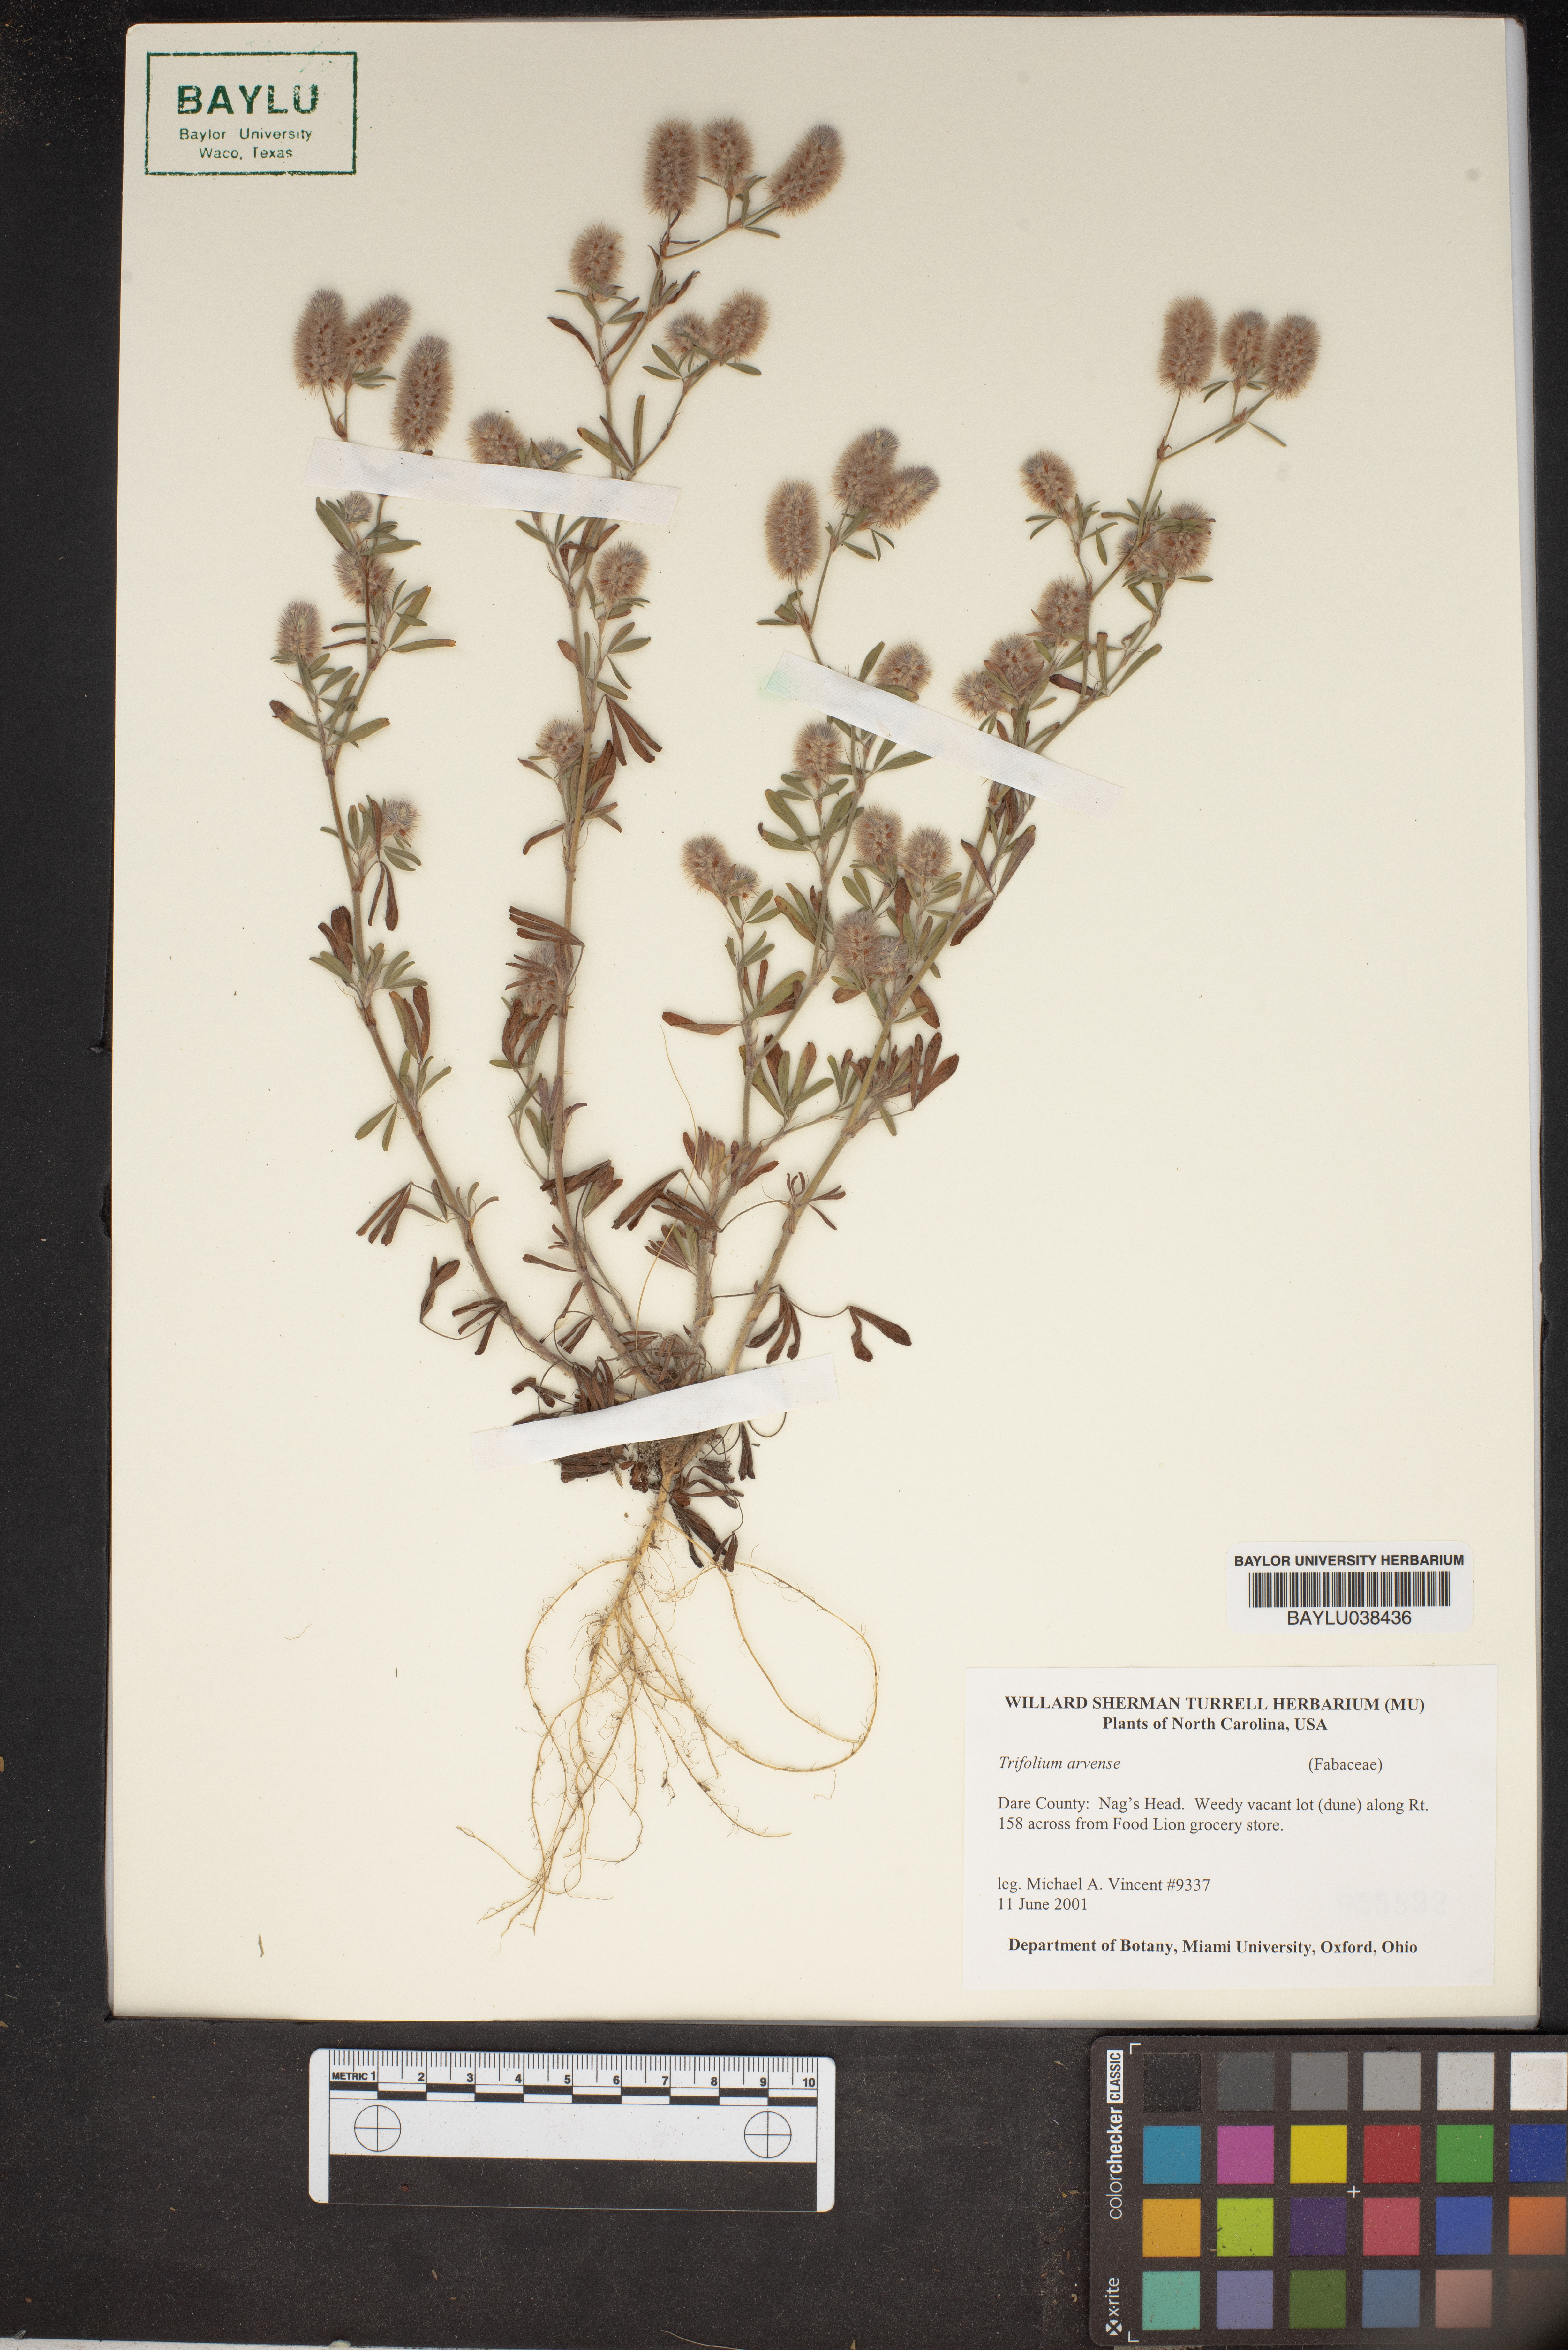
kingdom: Plantae
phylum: Tracheophyta
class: Magnoliopsida
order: Fabales
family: Fabaceae
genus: Trifolium
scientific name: Trifolium arvense
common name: Hare's-foot clover
